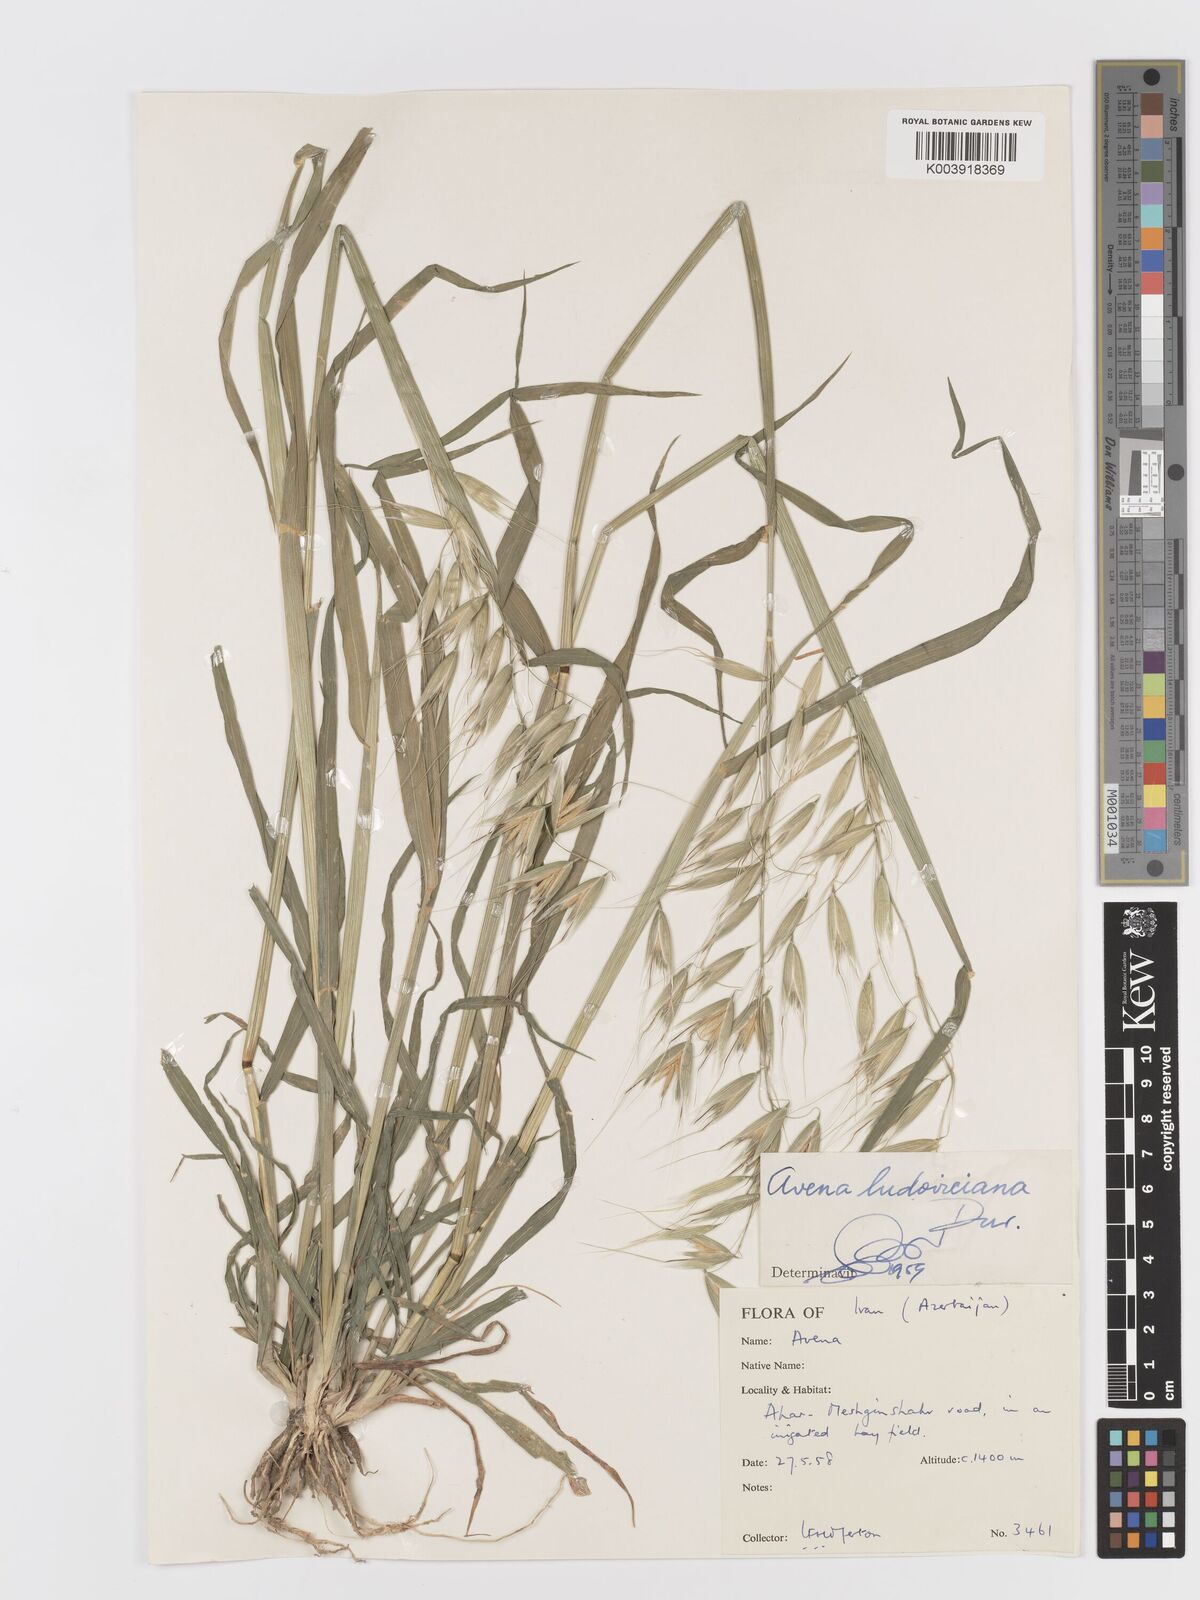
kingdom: Plantae
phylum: Tracheophyta
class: Liliopsida
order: Poales
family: Poaceae
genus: Avena
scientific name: Avena sterilis
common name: Animated oat
